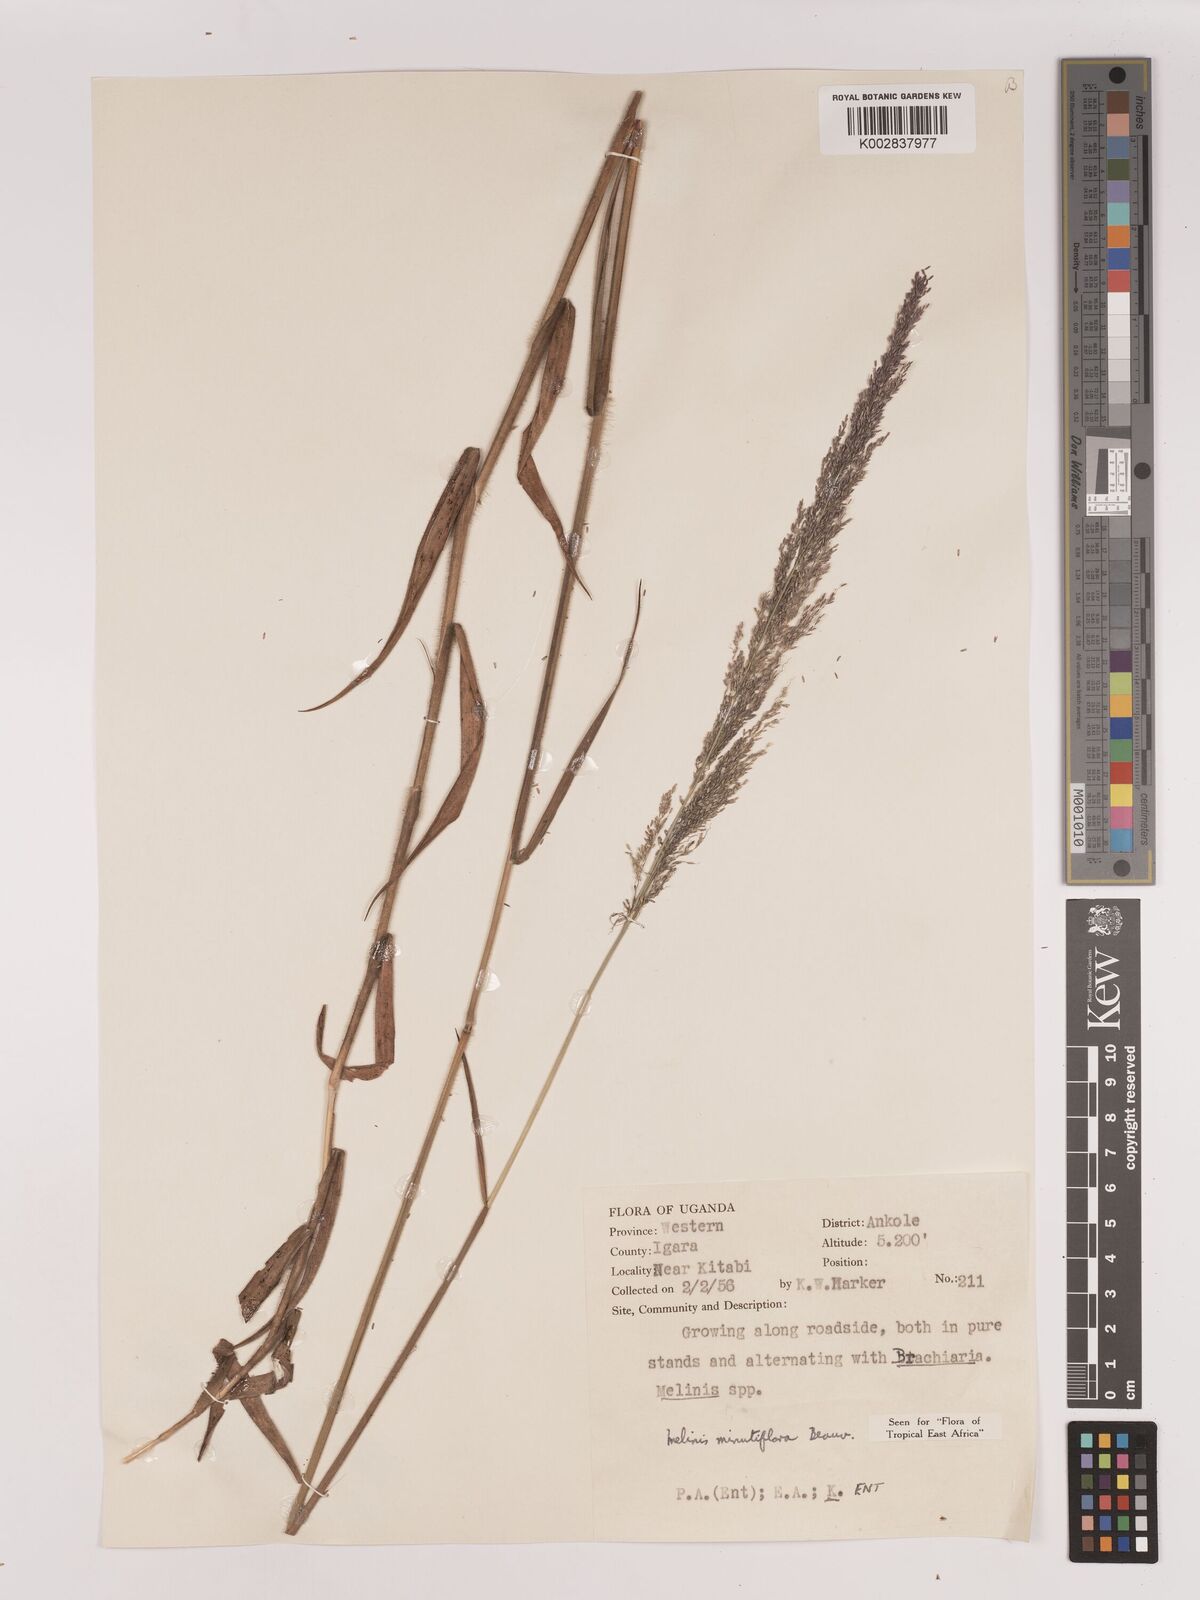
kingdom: Plantae
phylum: Tracheophyta
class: Liliopsida
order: Poales
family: Poaceae
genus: Melinis
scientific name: Melinis minutiflora
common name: Molassesgrass
